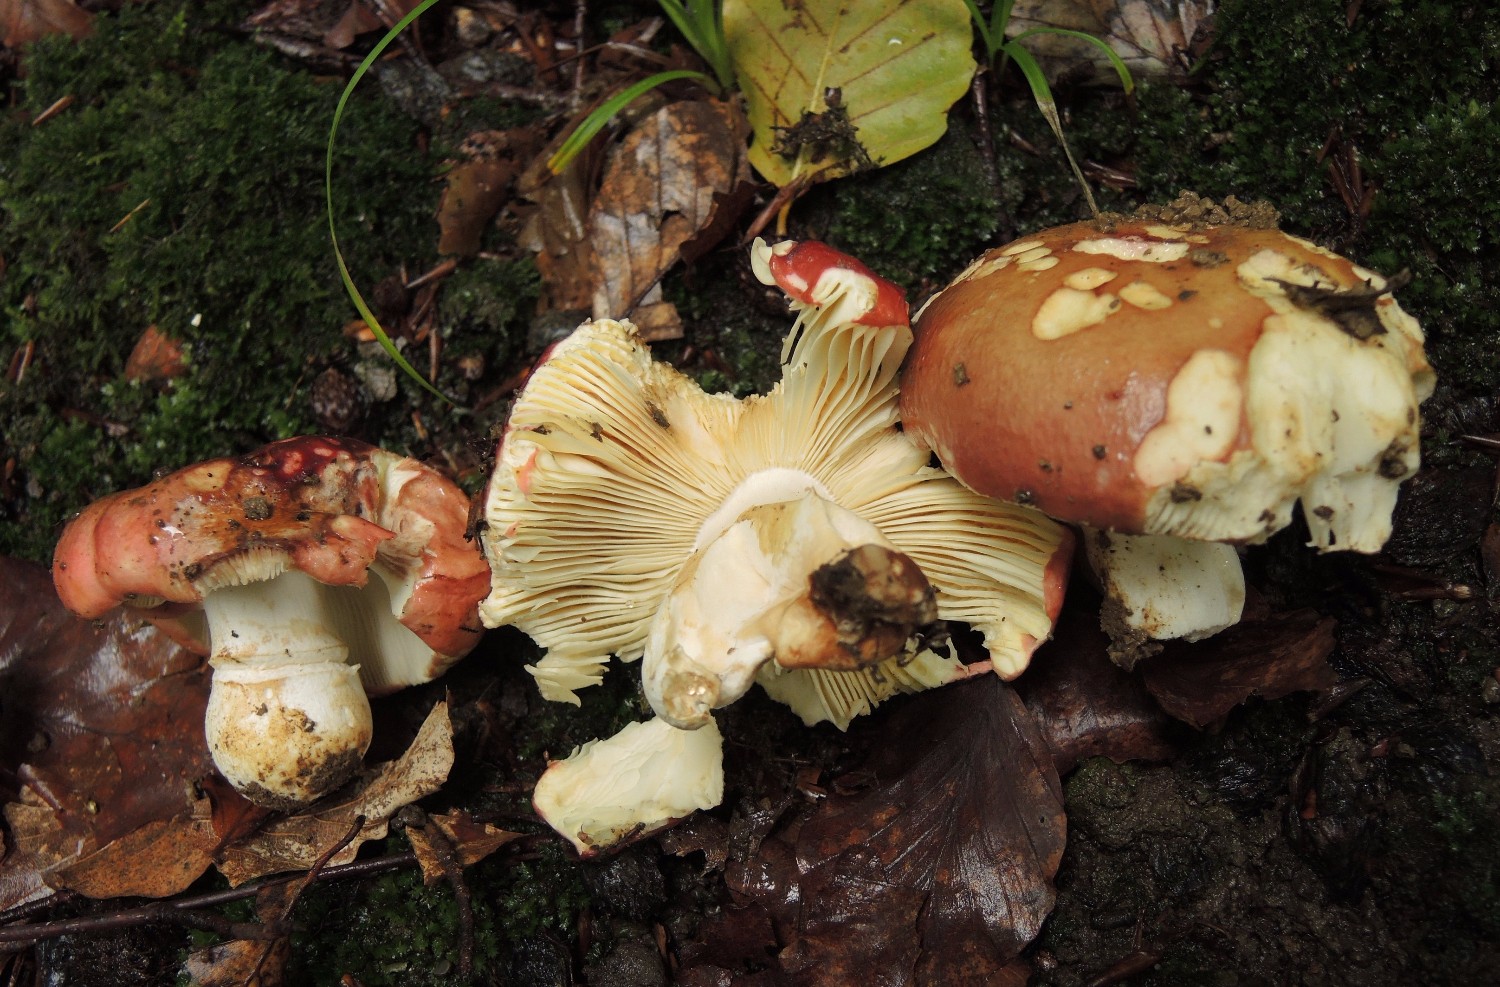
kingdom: Fungi
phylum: Basidiomycota
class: Agaricomycetes
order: Russulales
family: Russulaceae
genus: Russula
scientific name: Russula faginea
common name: bøge-skørhat
